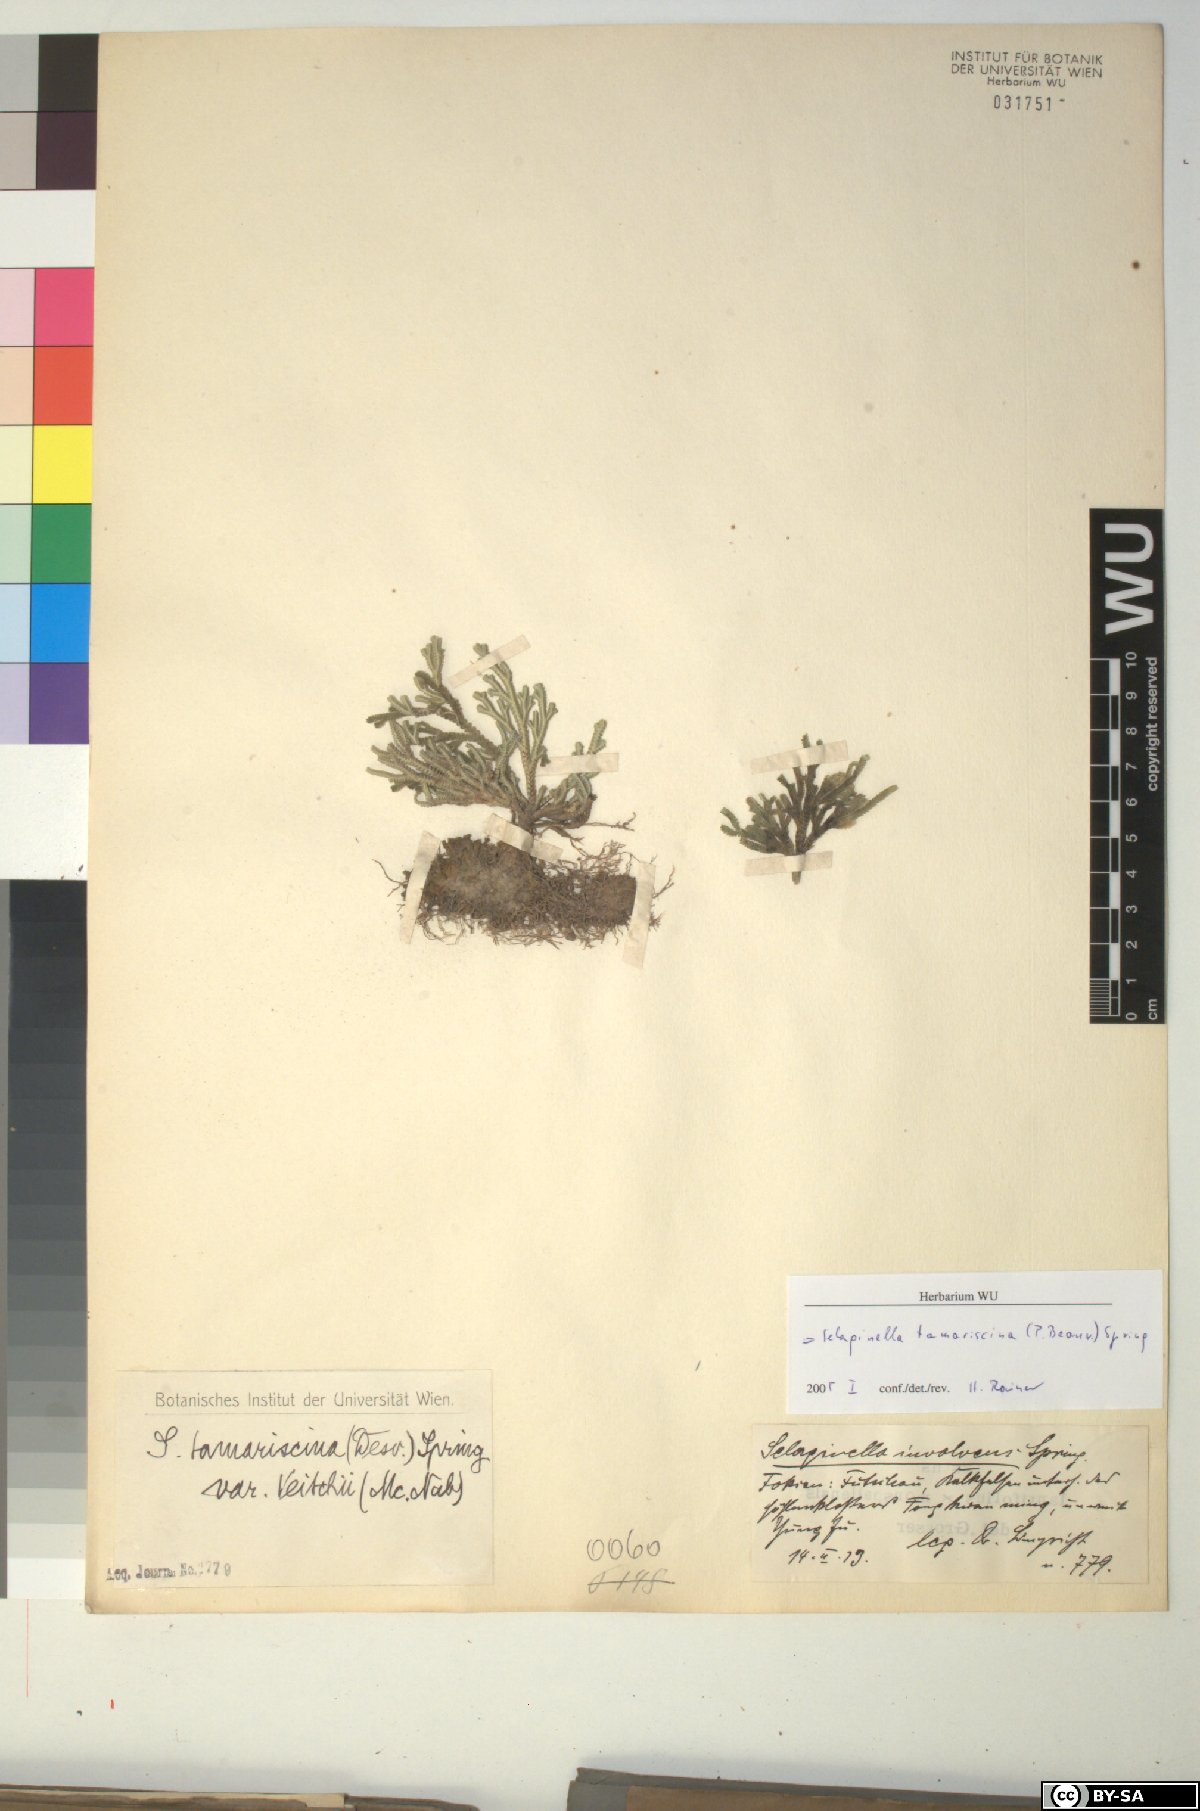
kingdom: Plantae
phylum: Tracheophyta
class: Lycopodiopsida
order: Selaginellales
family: Selaginellaceae
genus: Selaginella
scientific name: Selaginella tamariscina
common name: Little-club-moss
